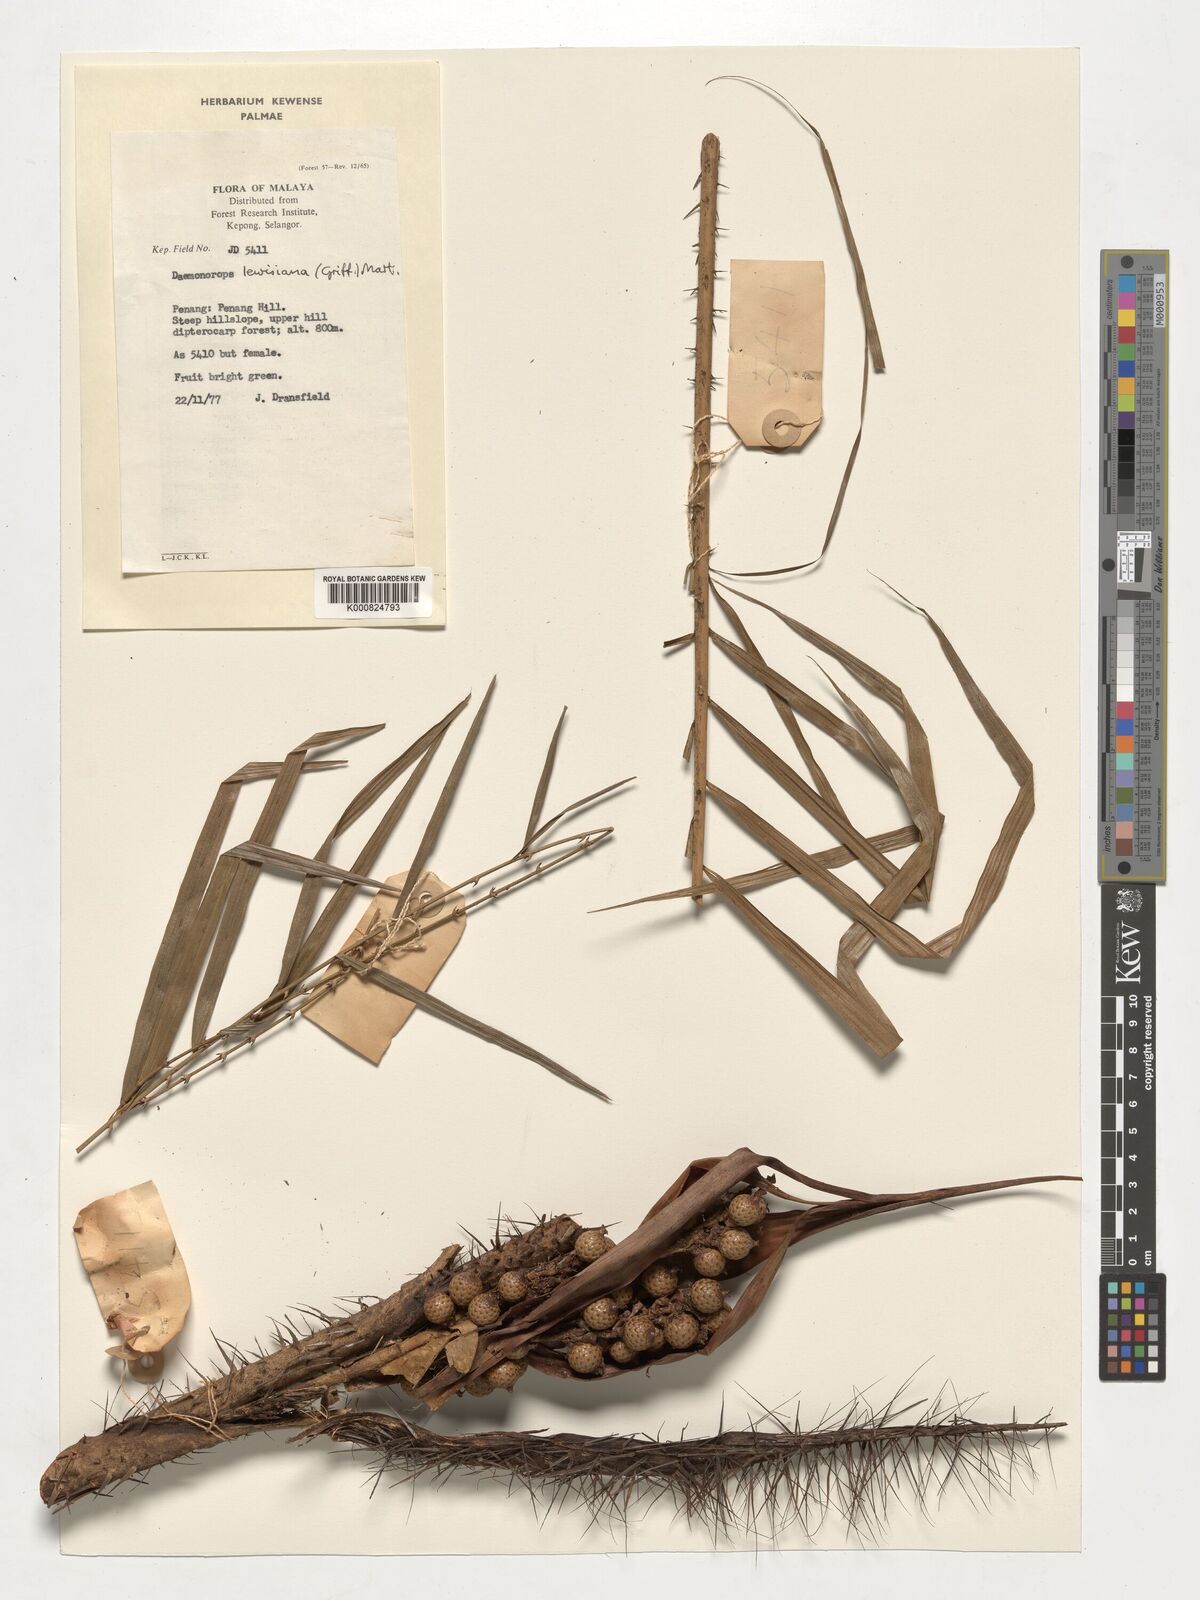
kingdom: Plantae
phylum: Tracheophyta
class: Liliopsida
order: Arecales
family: Arecaceae
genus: Calamus
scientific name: Calamus melanochaetes
